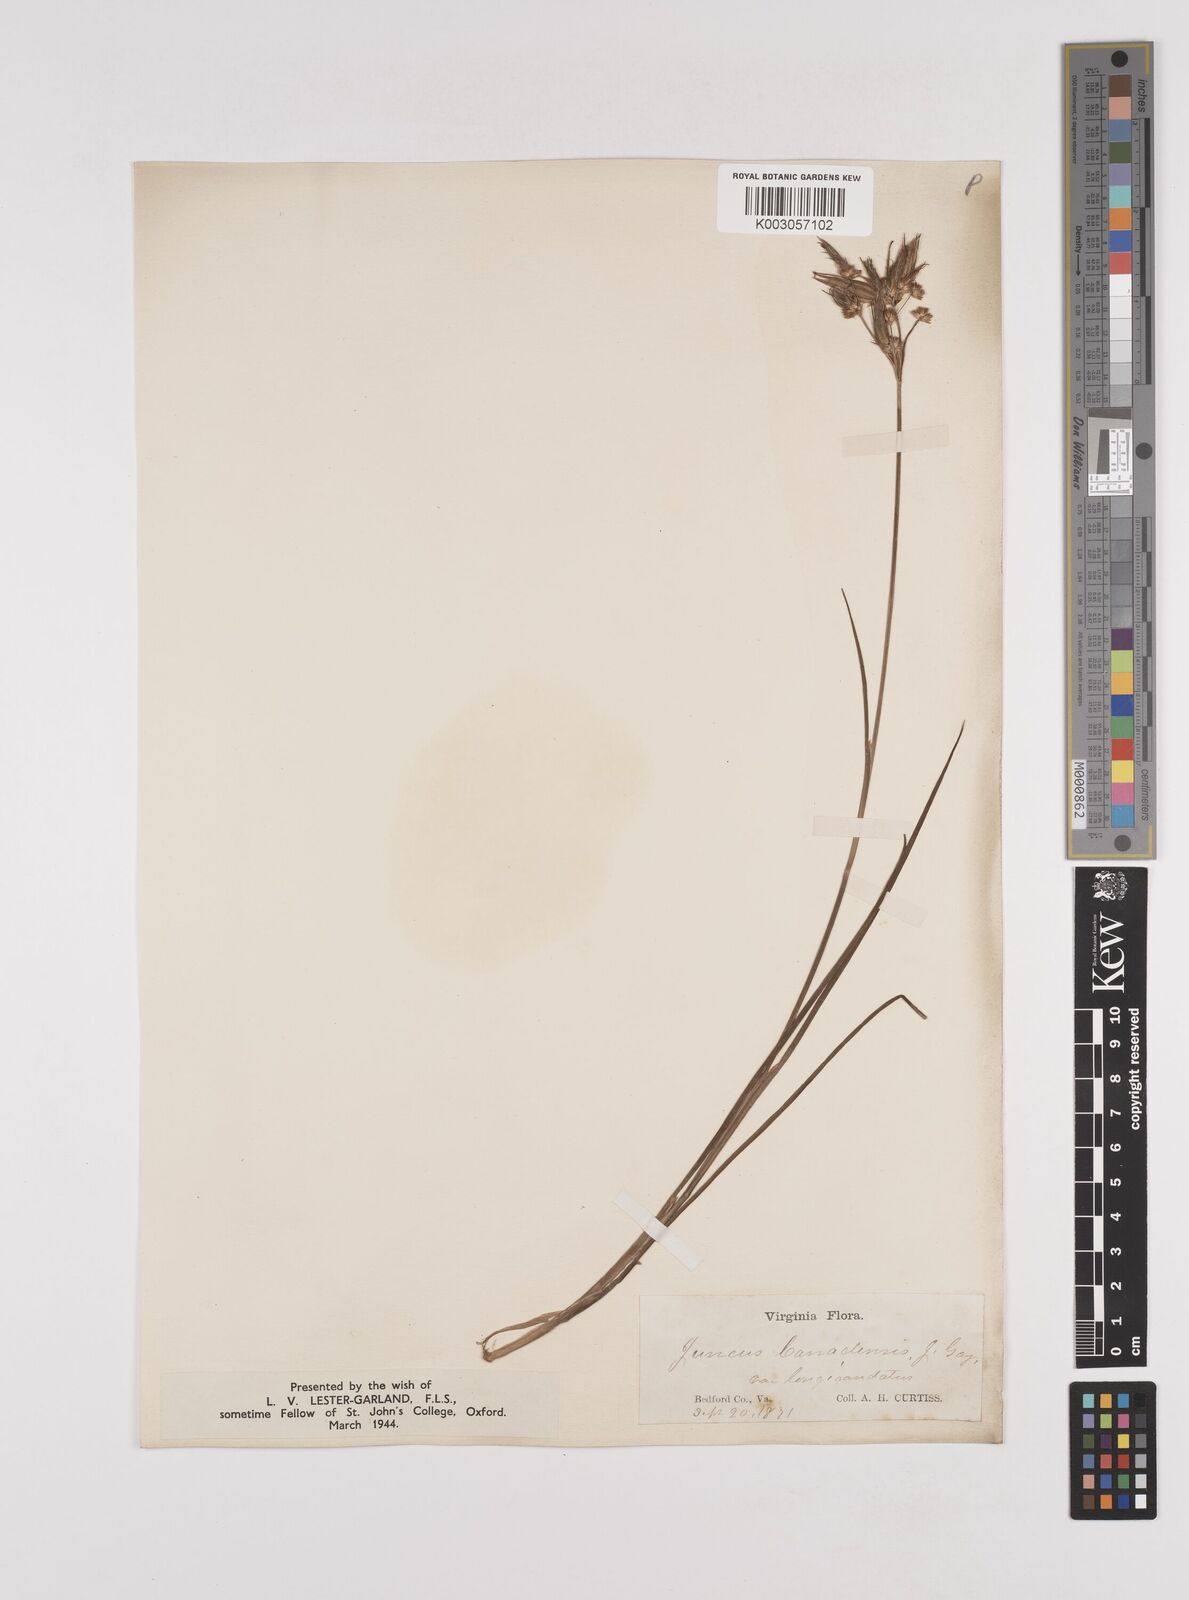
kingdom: Plantae
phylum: Tracheophyta
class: Liliopsida
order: Poales
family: Juncaceae
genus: Juncus
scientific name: Juncus canadensis
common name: Canada rush
